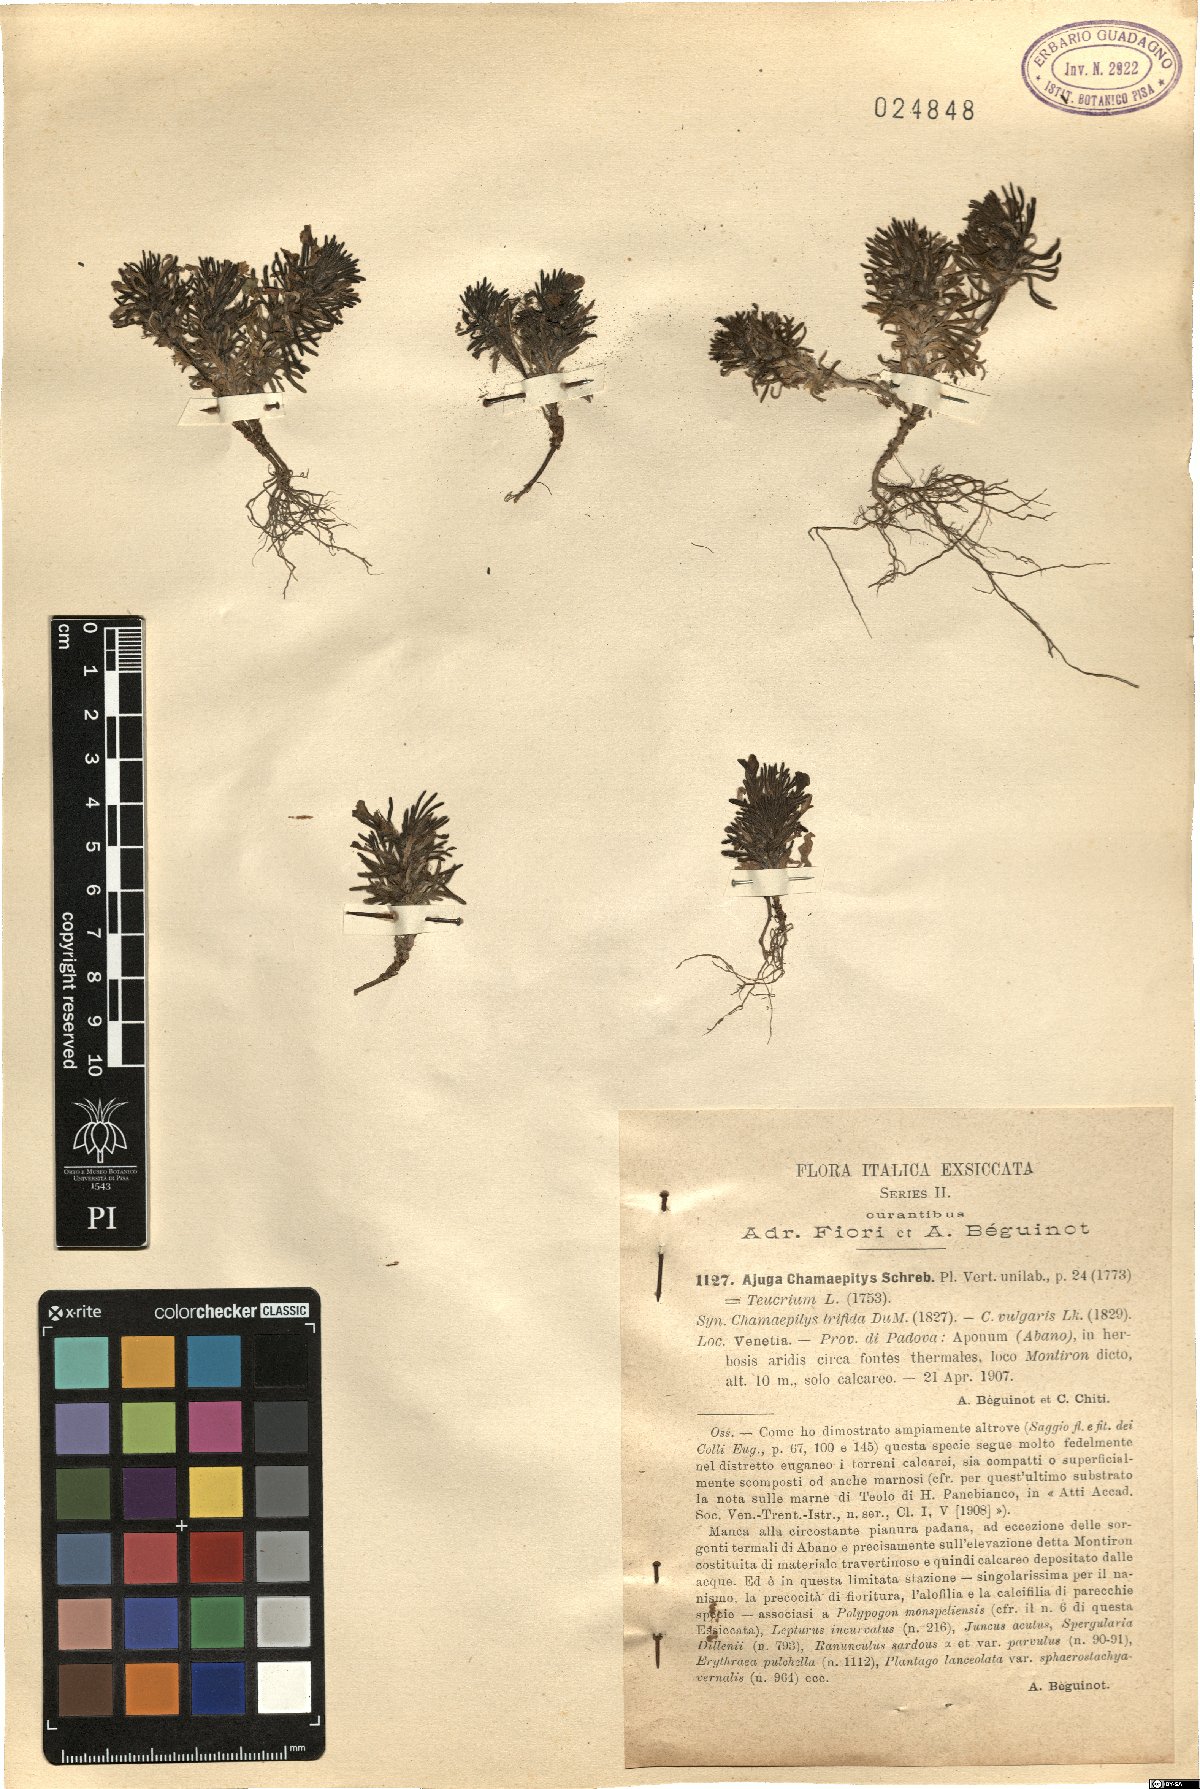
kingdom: Plantae
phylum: Tracheophyta
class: Magnoliopsida
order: Lamiales
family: Lamiaceae
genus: Ajuga
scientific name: Ajuga chamaepitys
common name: Ground-pine
